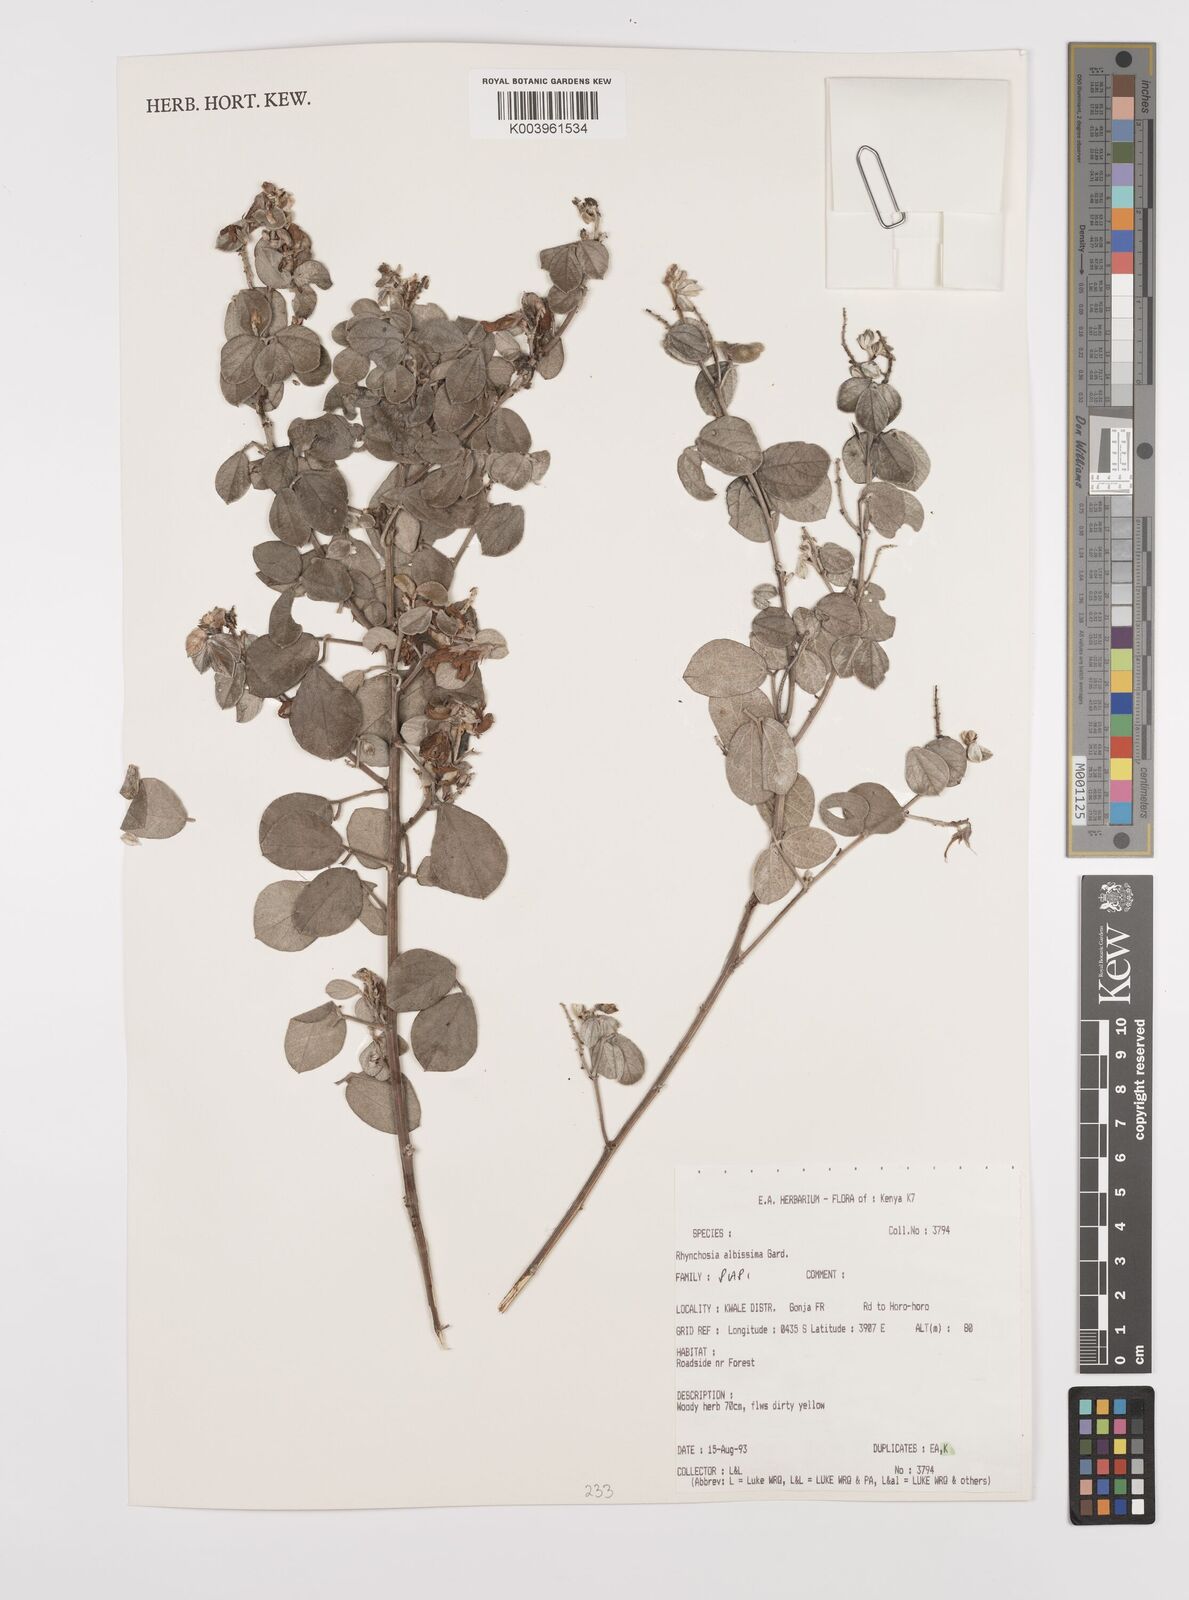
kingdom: Plantae
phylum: Tracheophyta
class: Magnoliopsida
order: Fabales
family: Fabaceae
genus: Rhynchosia
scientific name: Rhynchosia albissima
